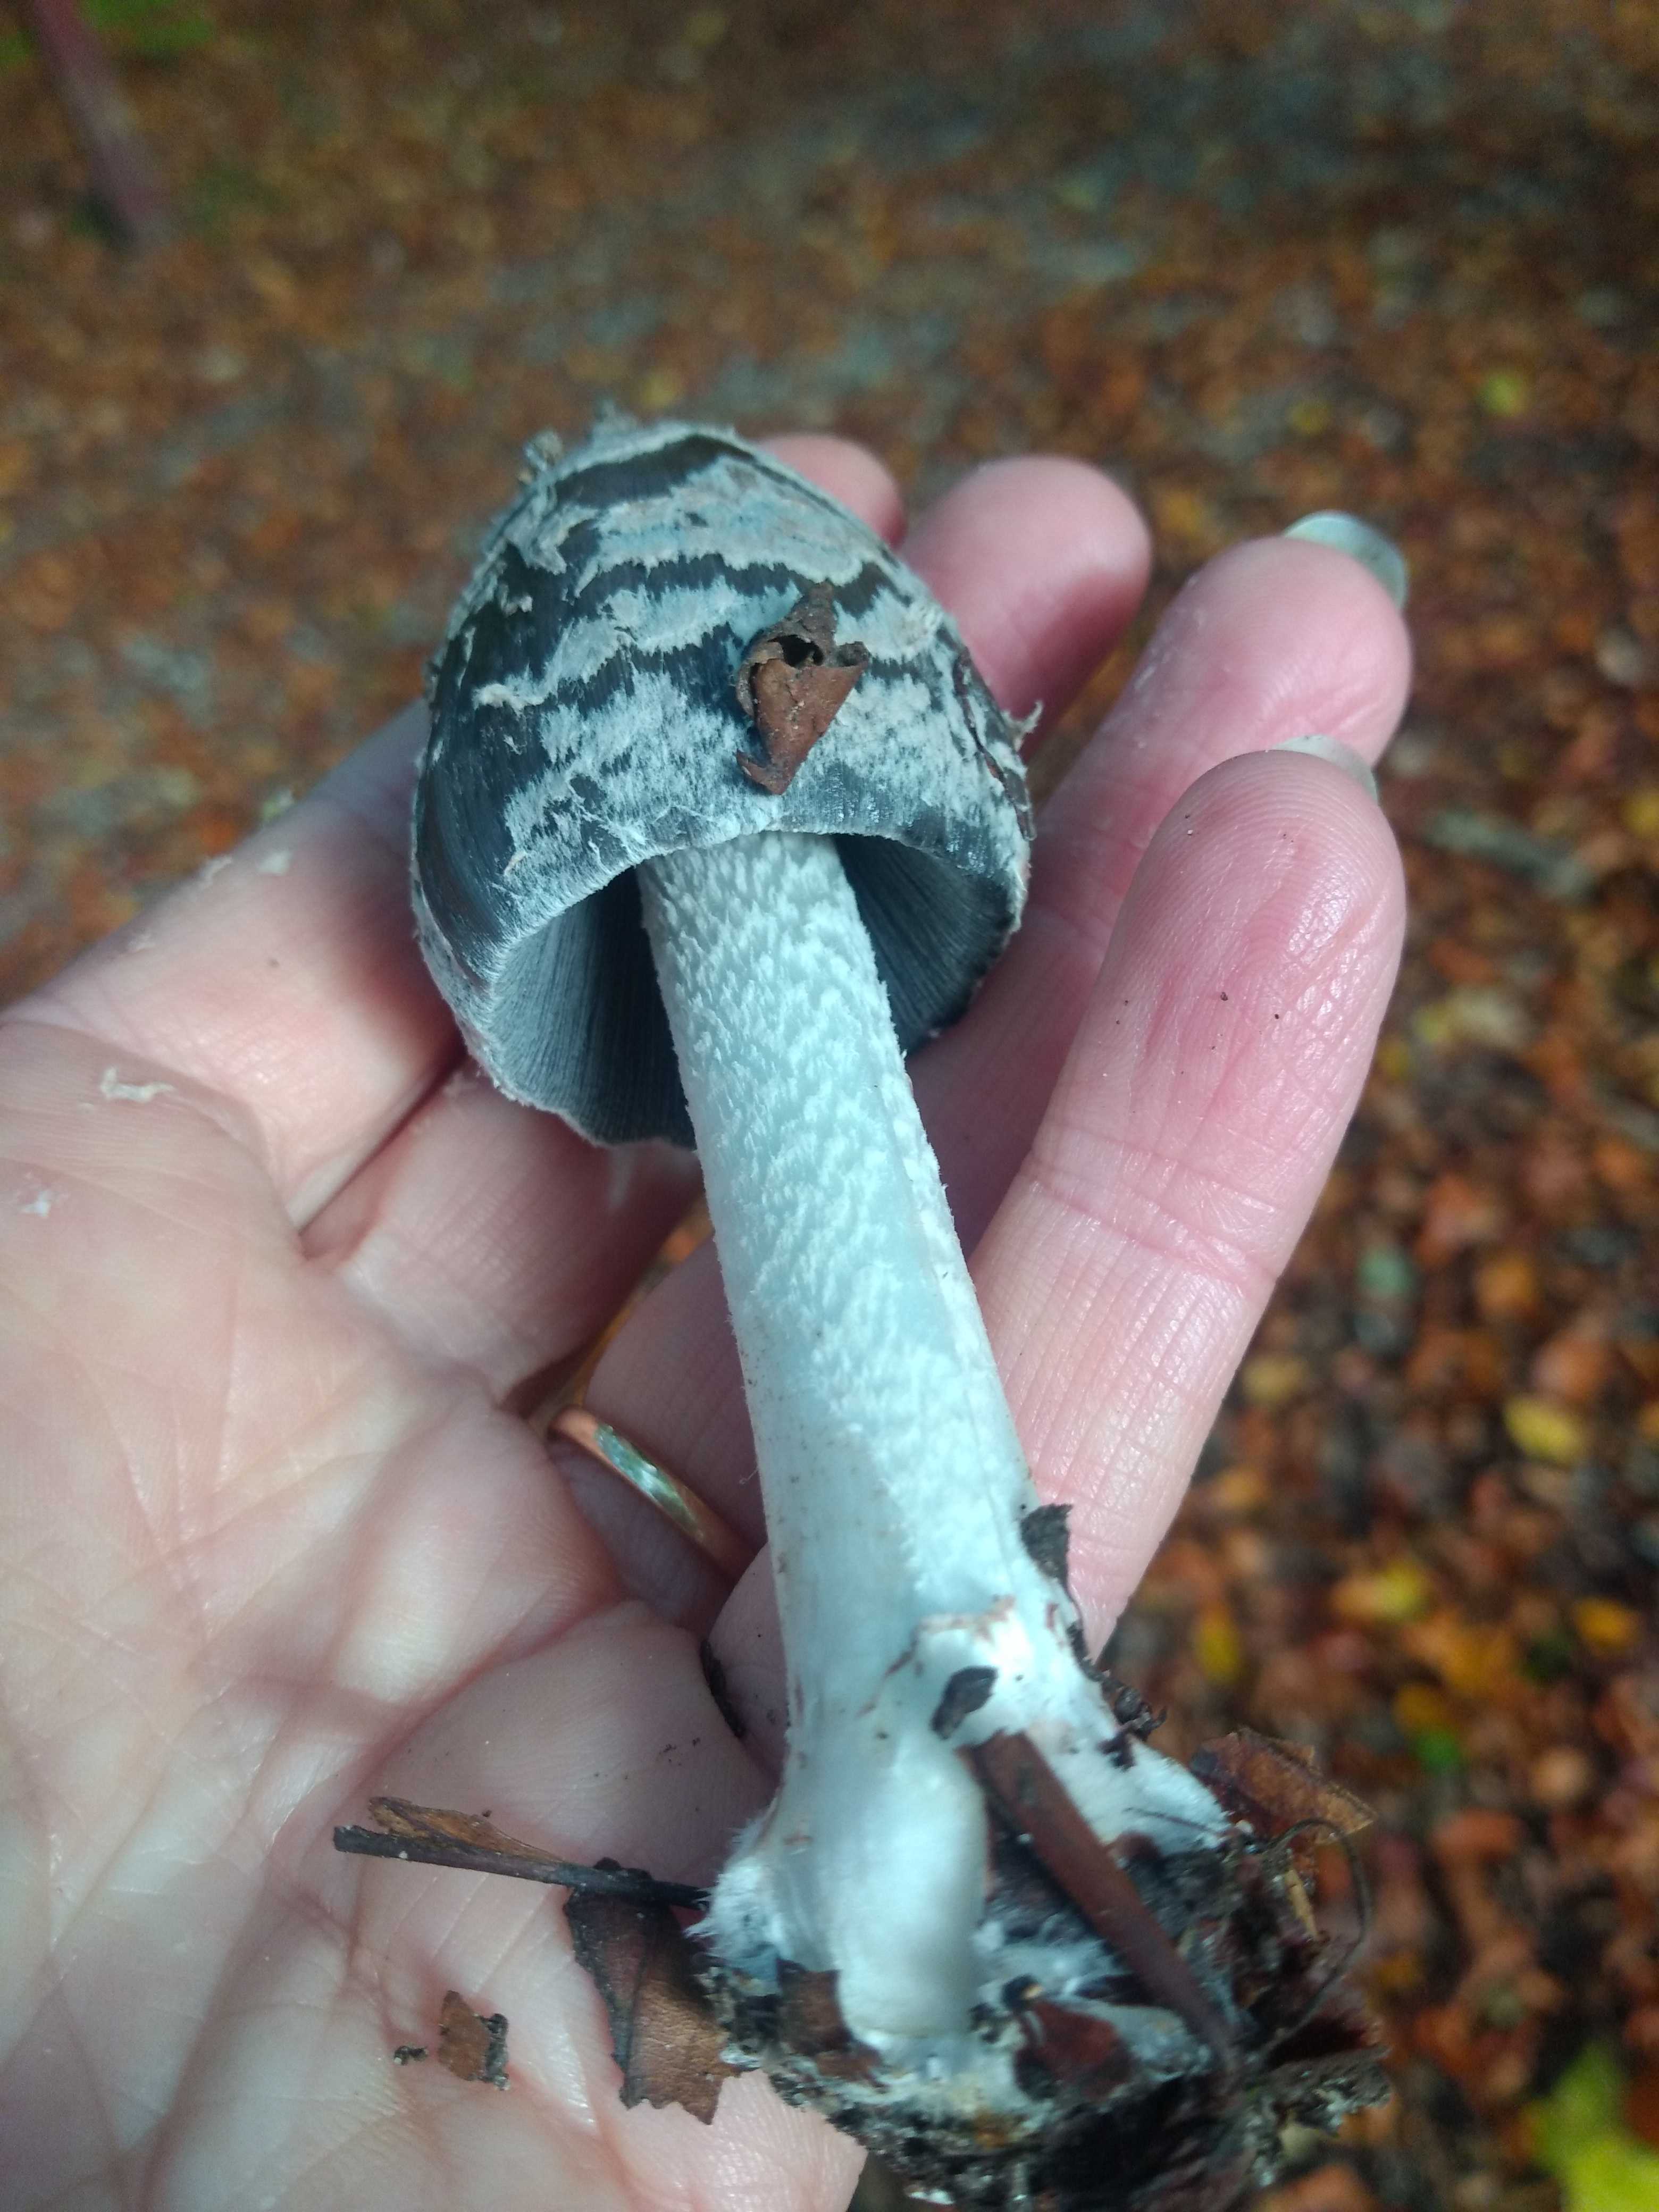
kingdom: Fungi
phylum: Basidiomycota
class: Agaricomycetes
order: Agaricales
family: Psathyrellaceae
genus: Coprinopsis
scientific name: Coprinopsis picacea
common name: skade-blækhat
